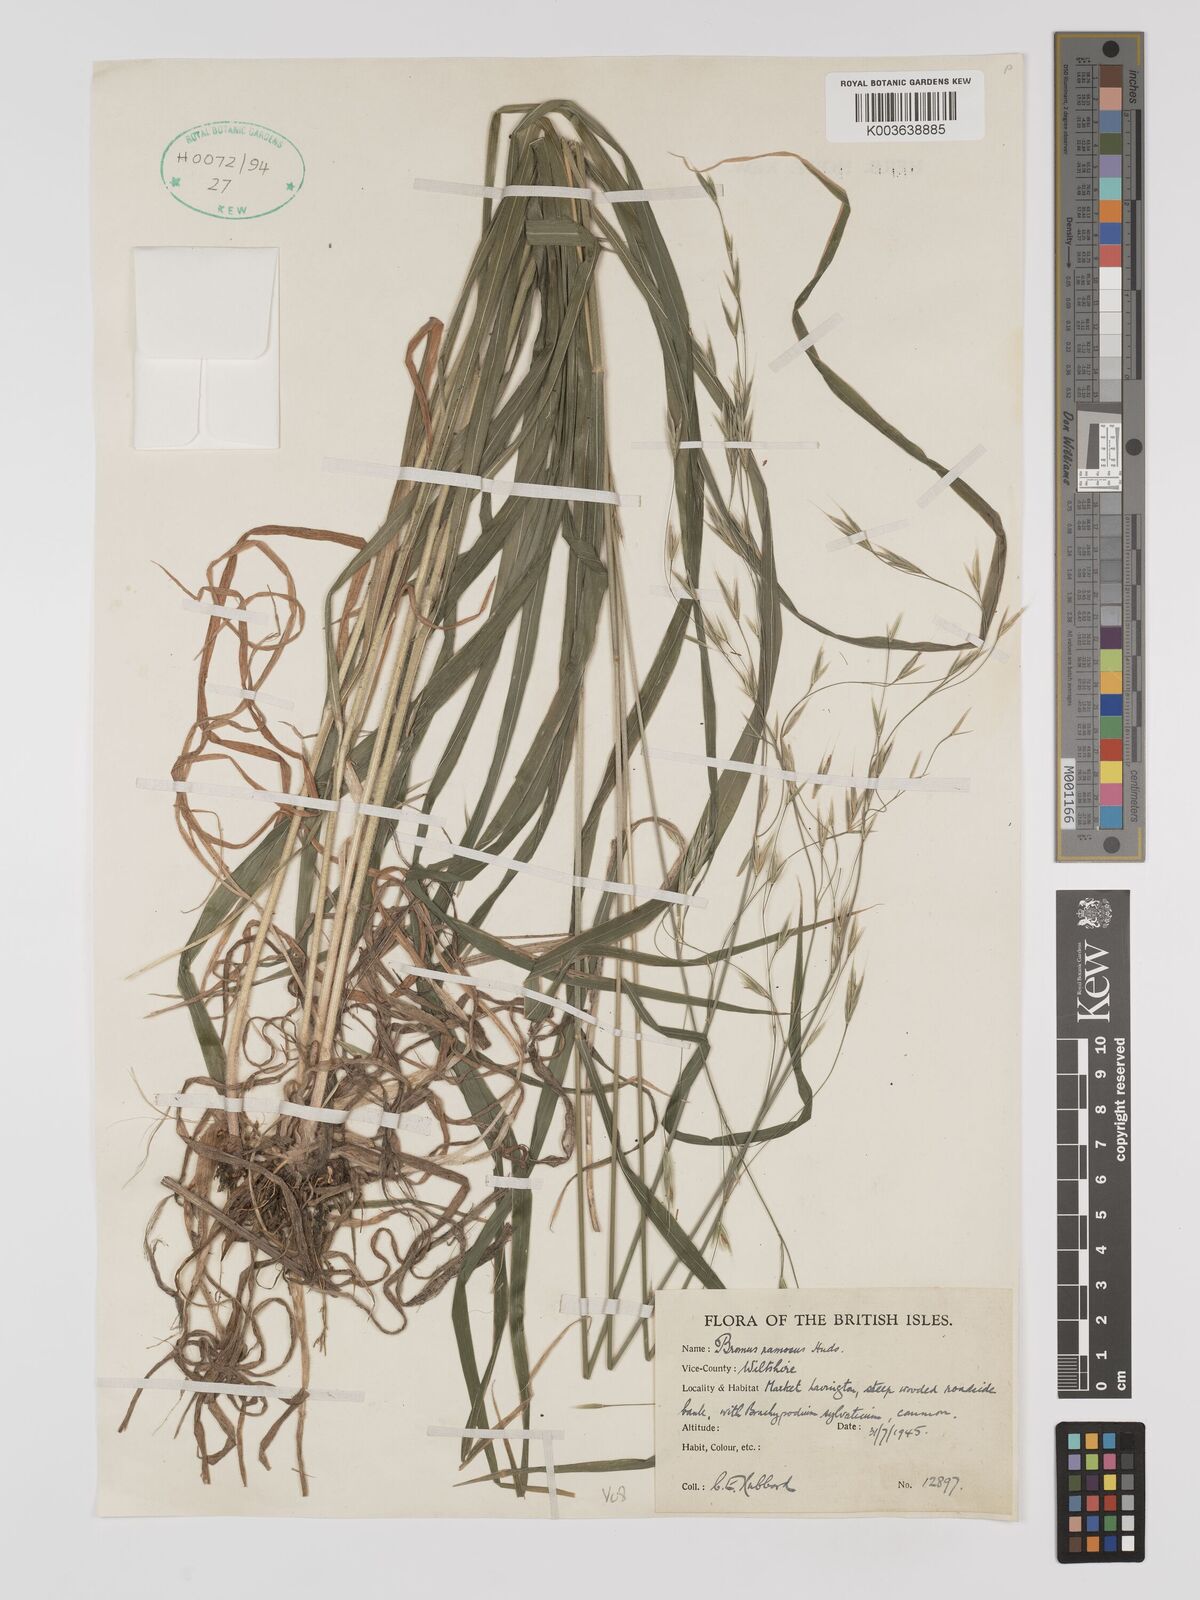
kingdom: Plantae
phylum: Tracheophyta
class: Liliopsida
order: Poales
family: Poaceae
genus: Brachypodium
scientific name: Brachypodium retusum
